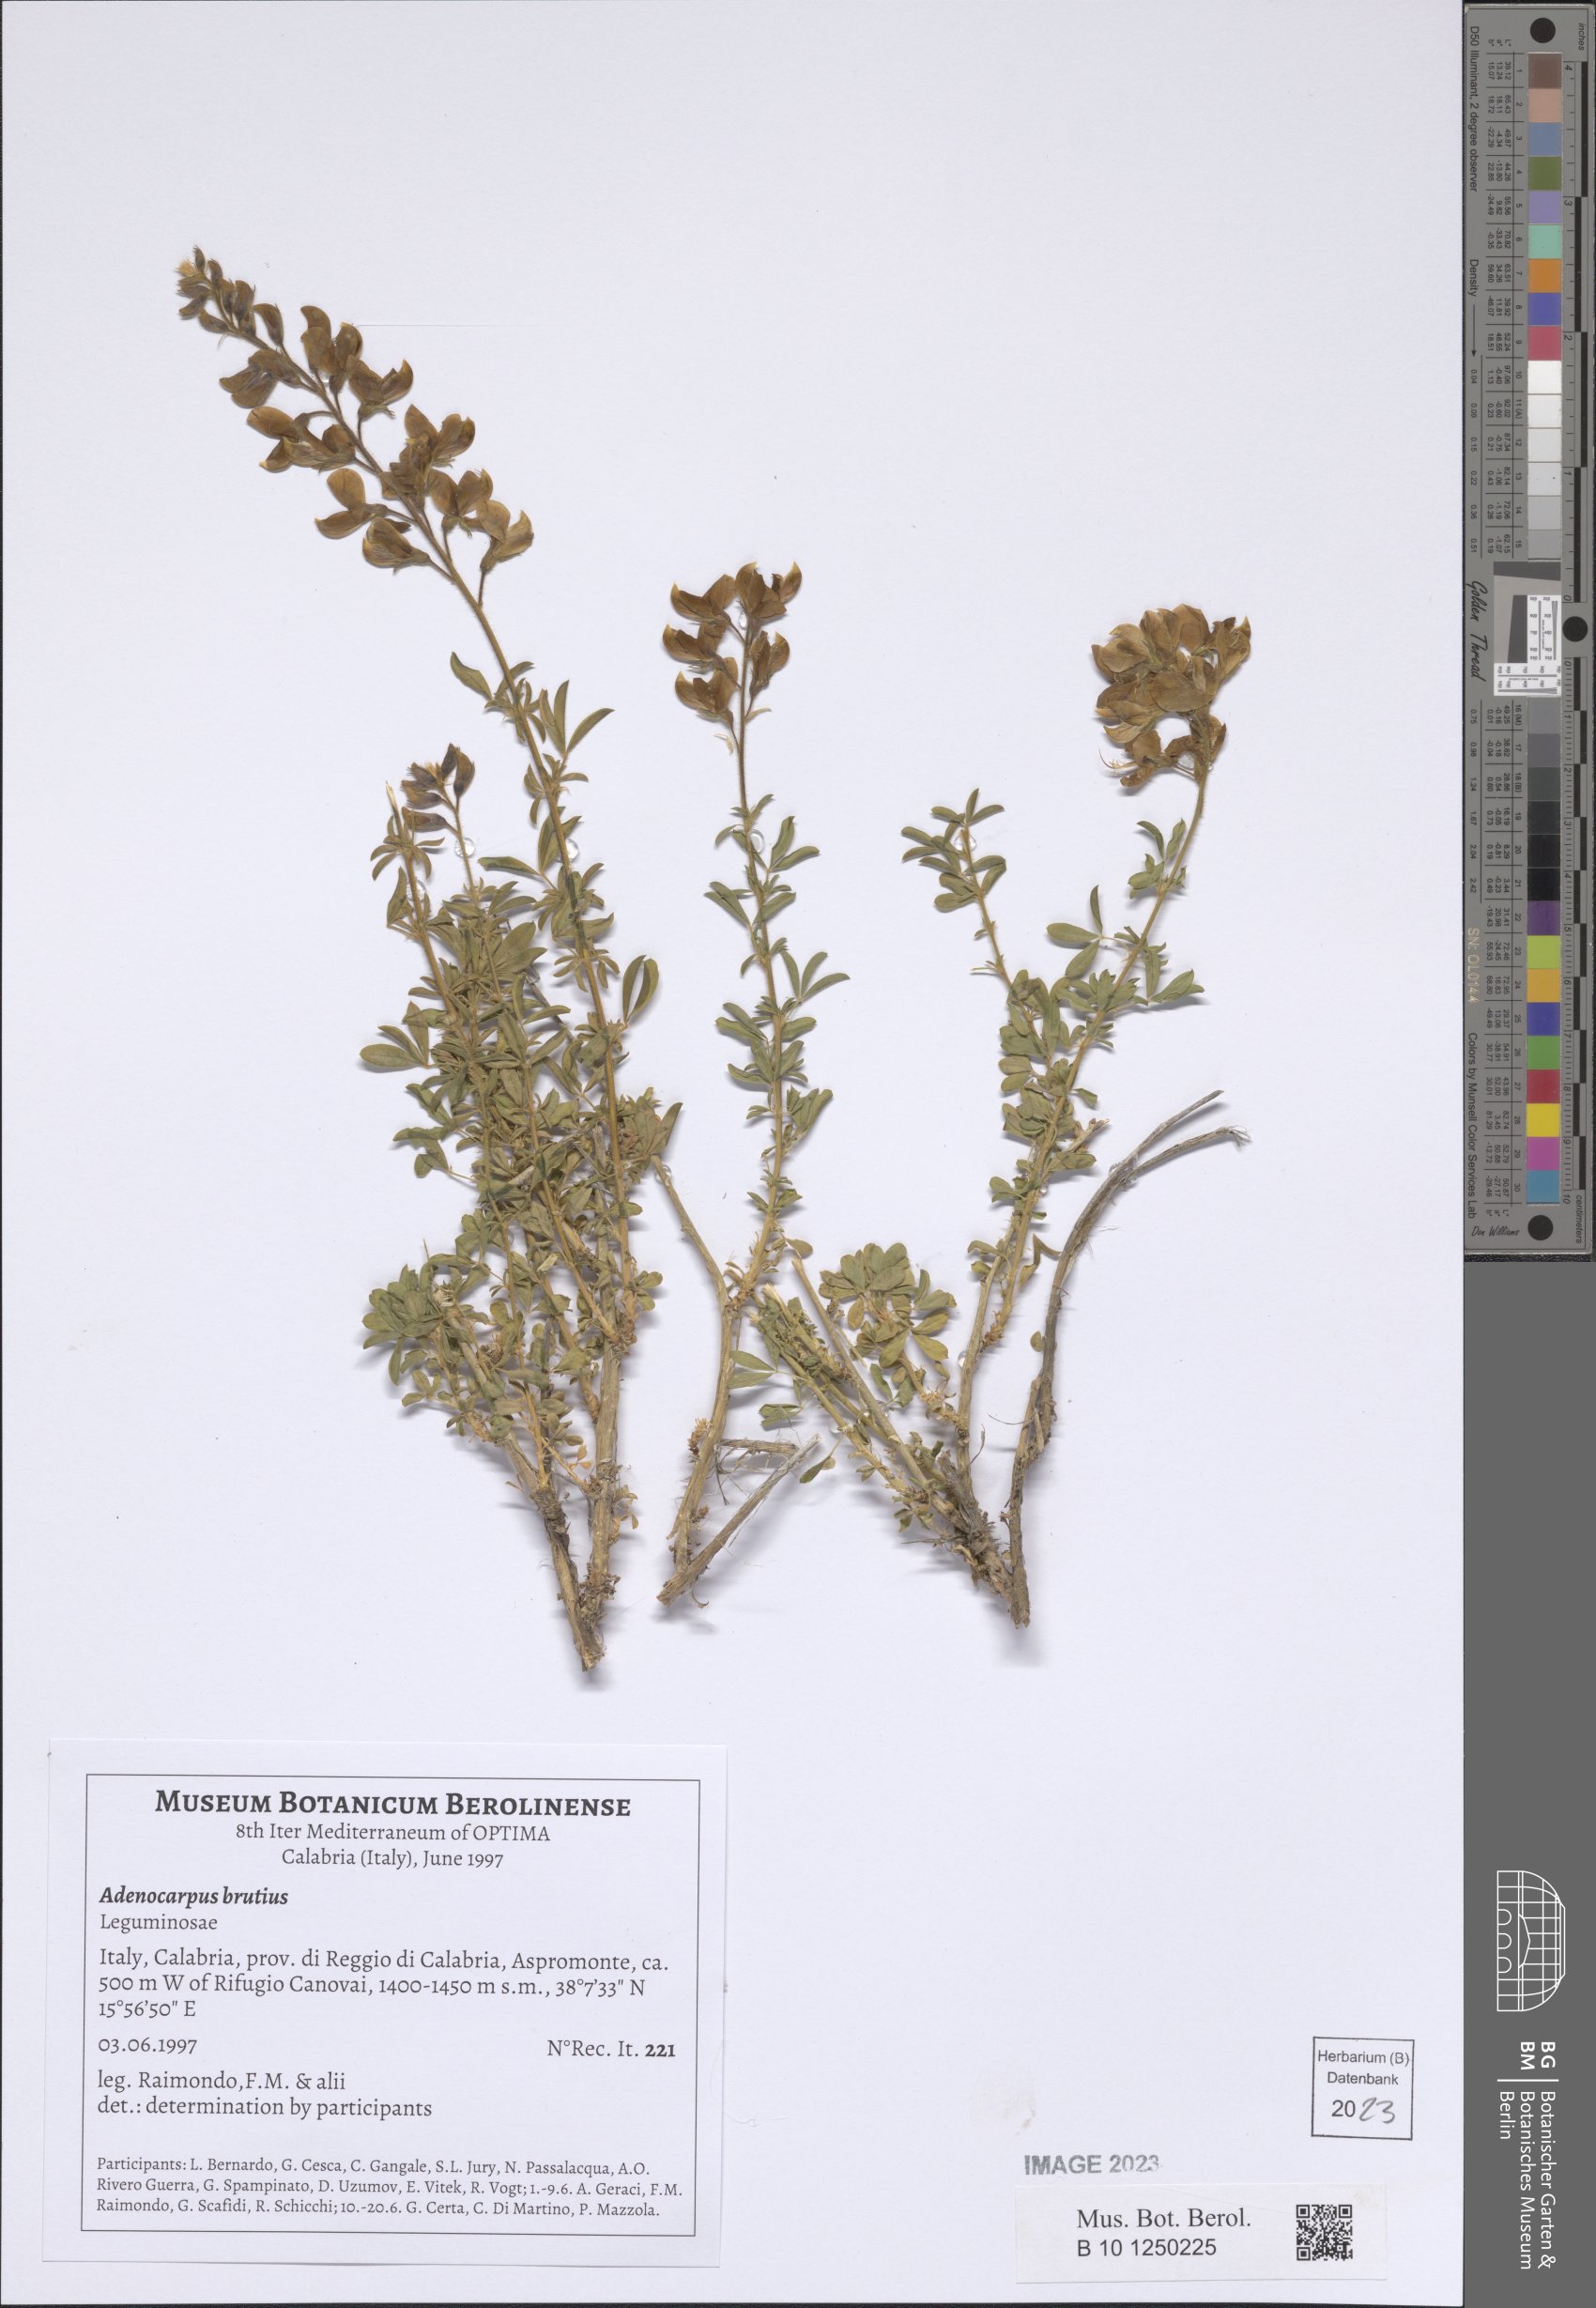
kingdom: Plantae
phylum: Tracheophyta
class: Magnoliopsida
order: Fabales
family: Fabaceae
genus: Adenocarpus
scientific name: Adenocarpus complicatus
